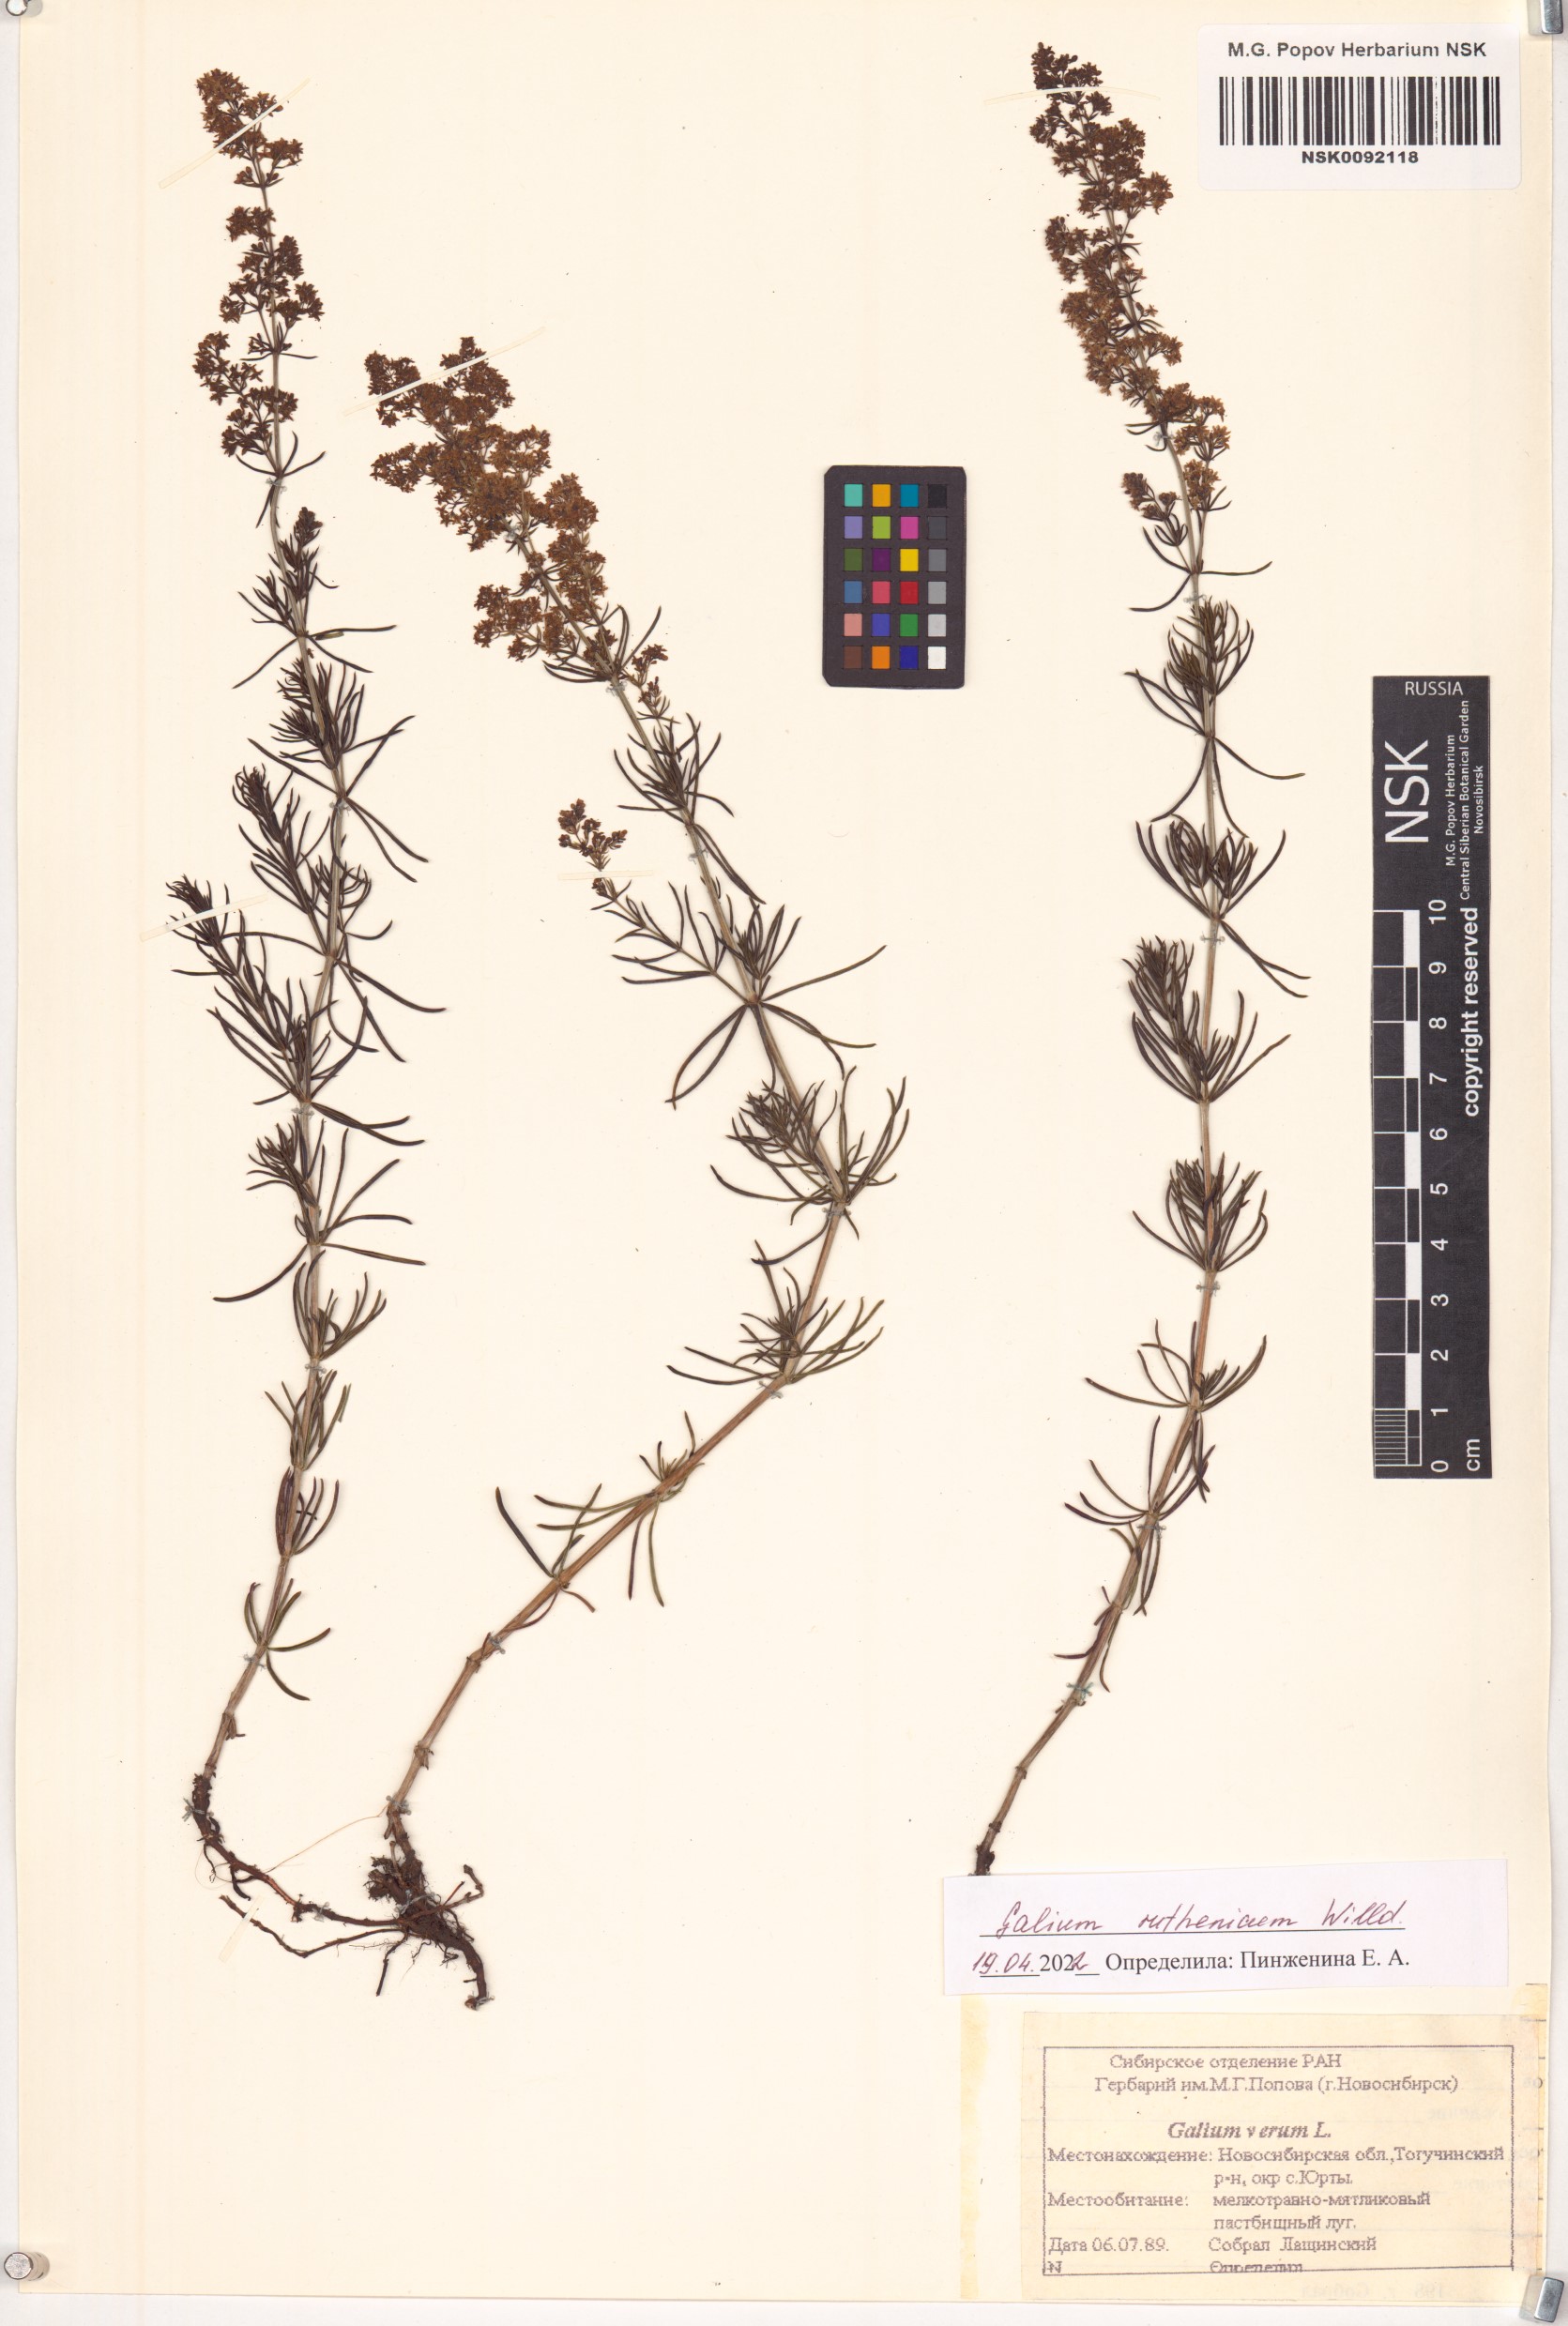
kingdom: Plantae
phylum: Tracheophyta
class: Magnoliopsida
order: Gentianales
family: Rubiaceae
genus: Galium
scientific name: Galium verum
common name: Lady's bedstraw
